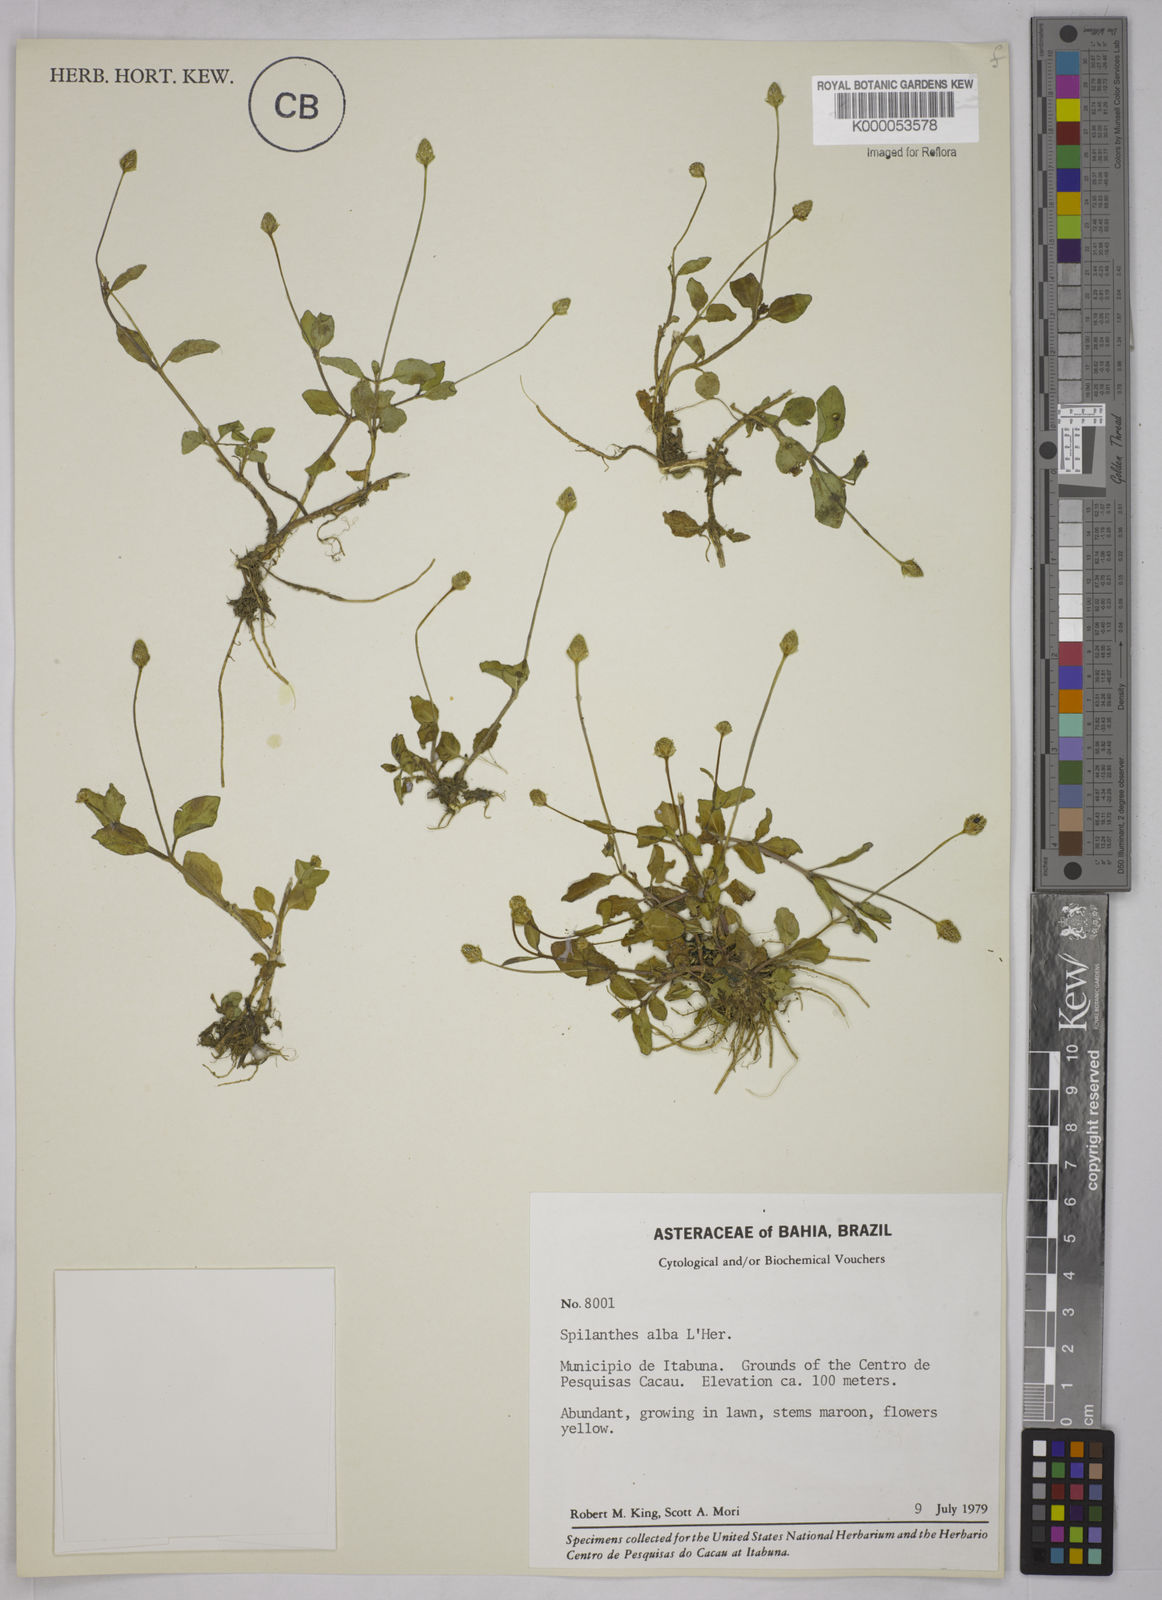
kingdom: Plantae
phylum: Tracheophyta
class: Magnoliopsida
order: Asterales
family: Asteraceae
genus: Acmella
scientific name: Acmella
